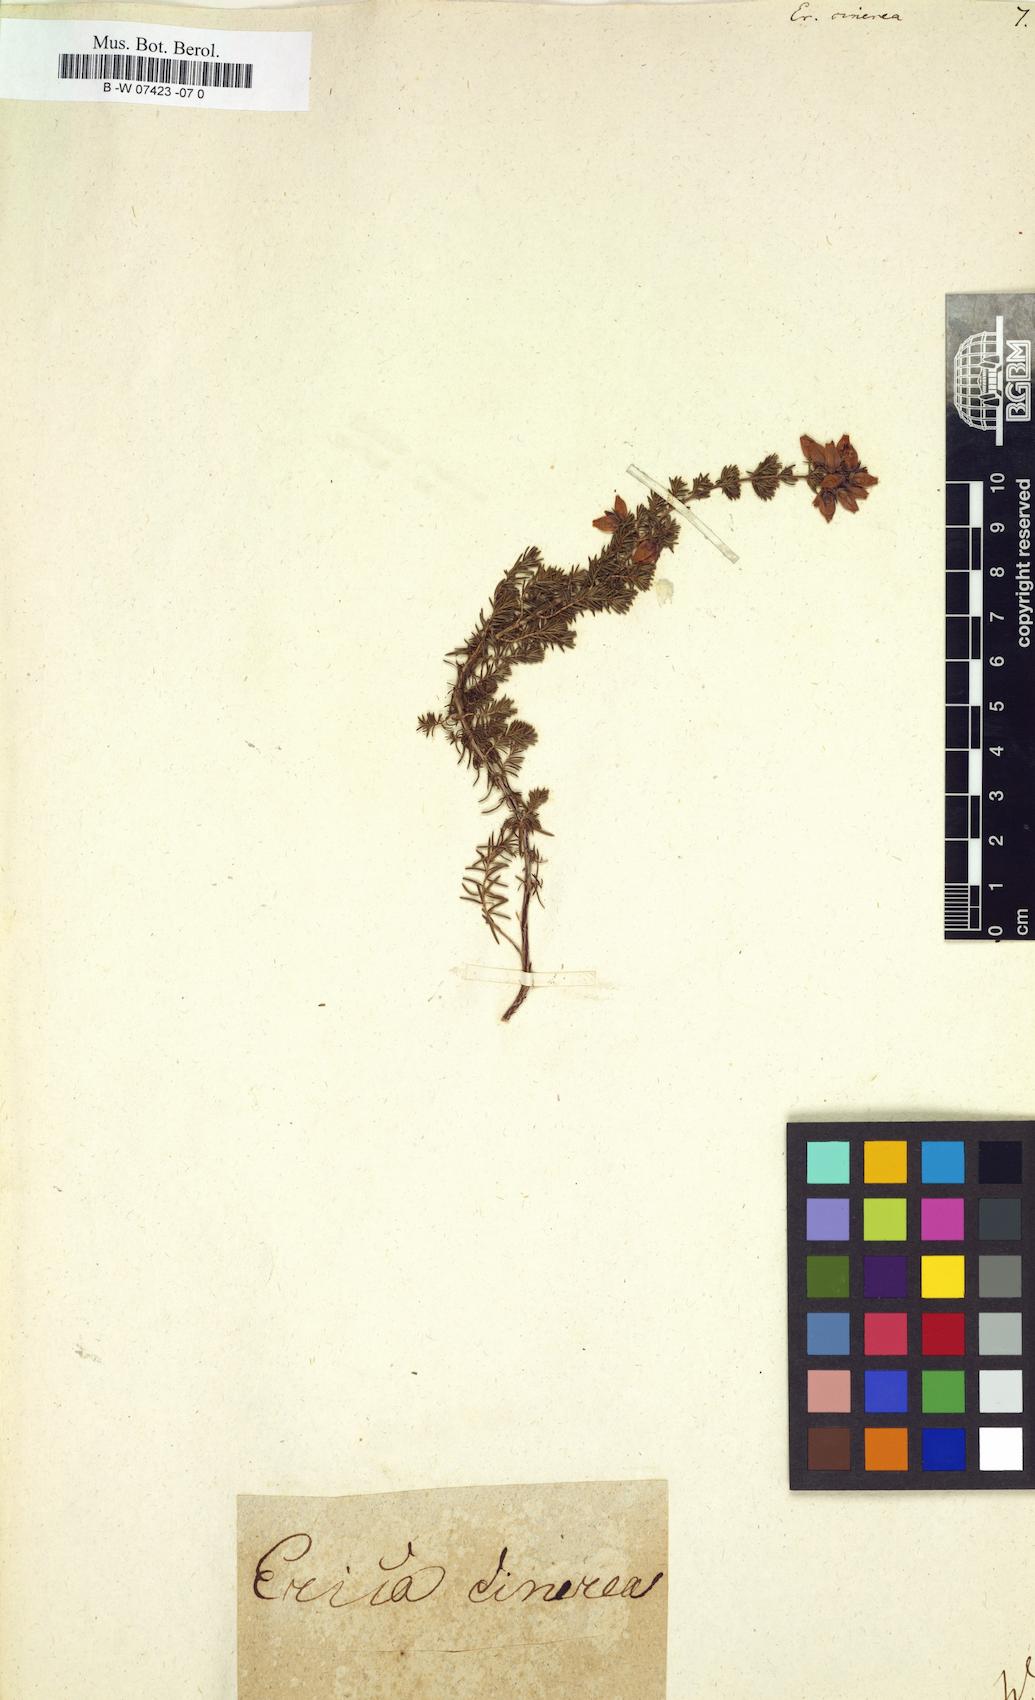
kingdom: Plantae
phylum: Tracheophyta
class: Magnoliopsida
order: Ericales
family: Ericaceae
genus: Erica
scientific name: Erica cinerea
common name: Bell heather
